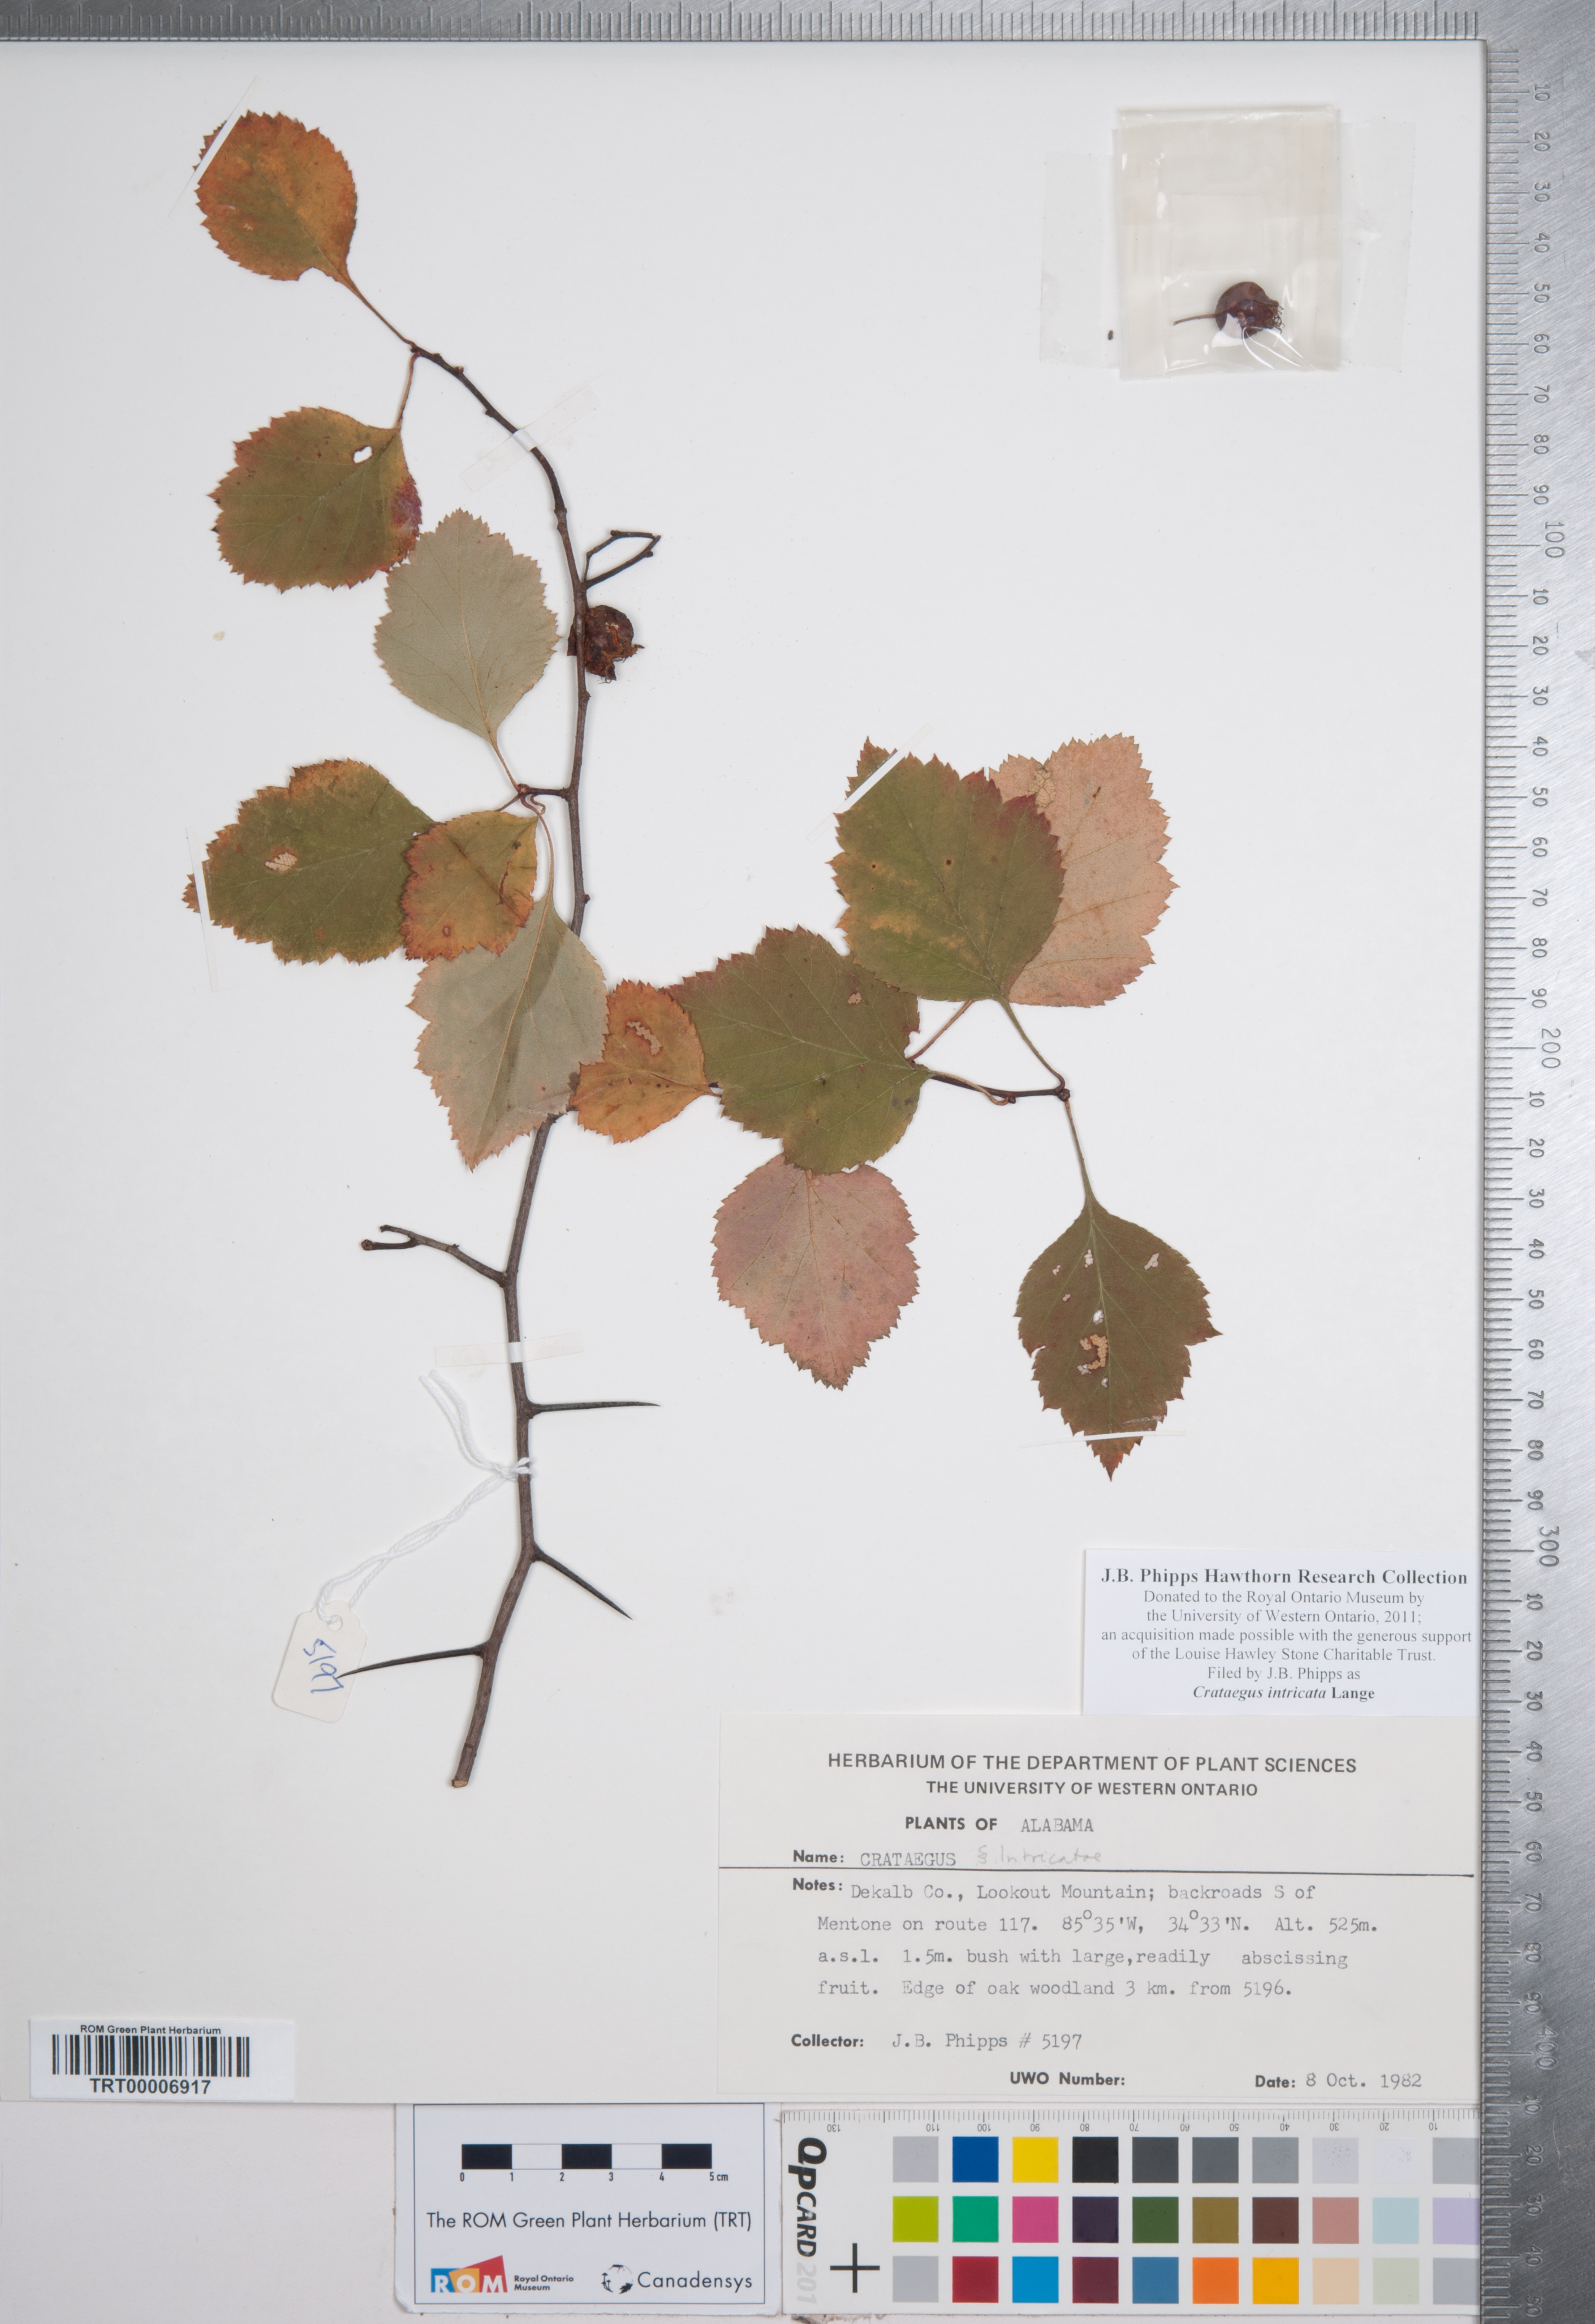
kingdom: Plantae
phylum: Tracheophyta
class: Magnoliopsida
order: Rosales
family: Rosaceae
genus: Crataegus
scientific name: Crataegus intricata
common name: Biltmore hawthorn
